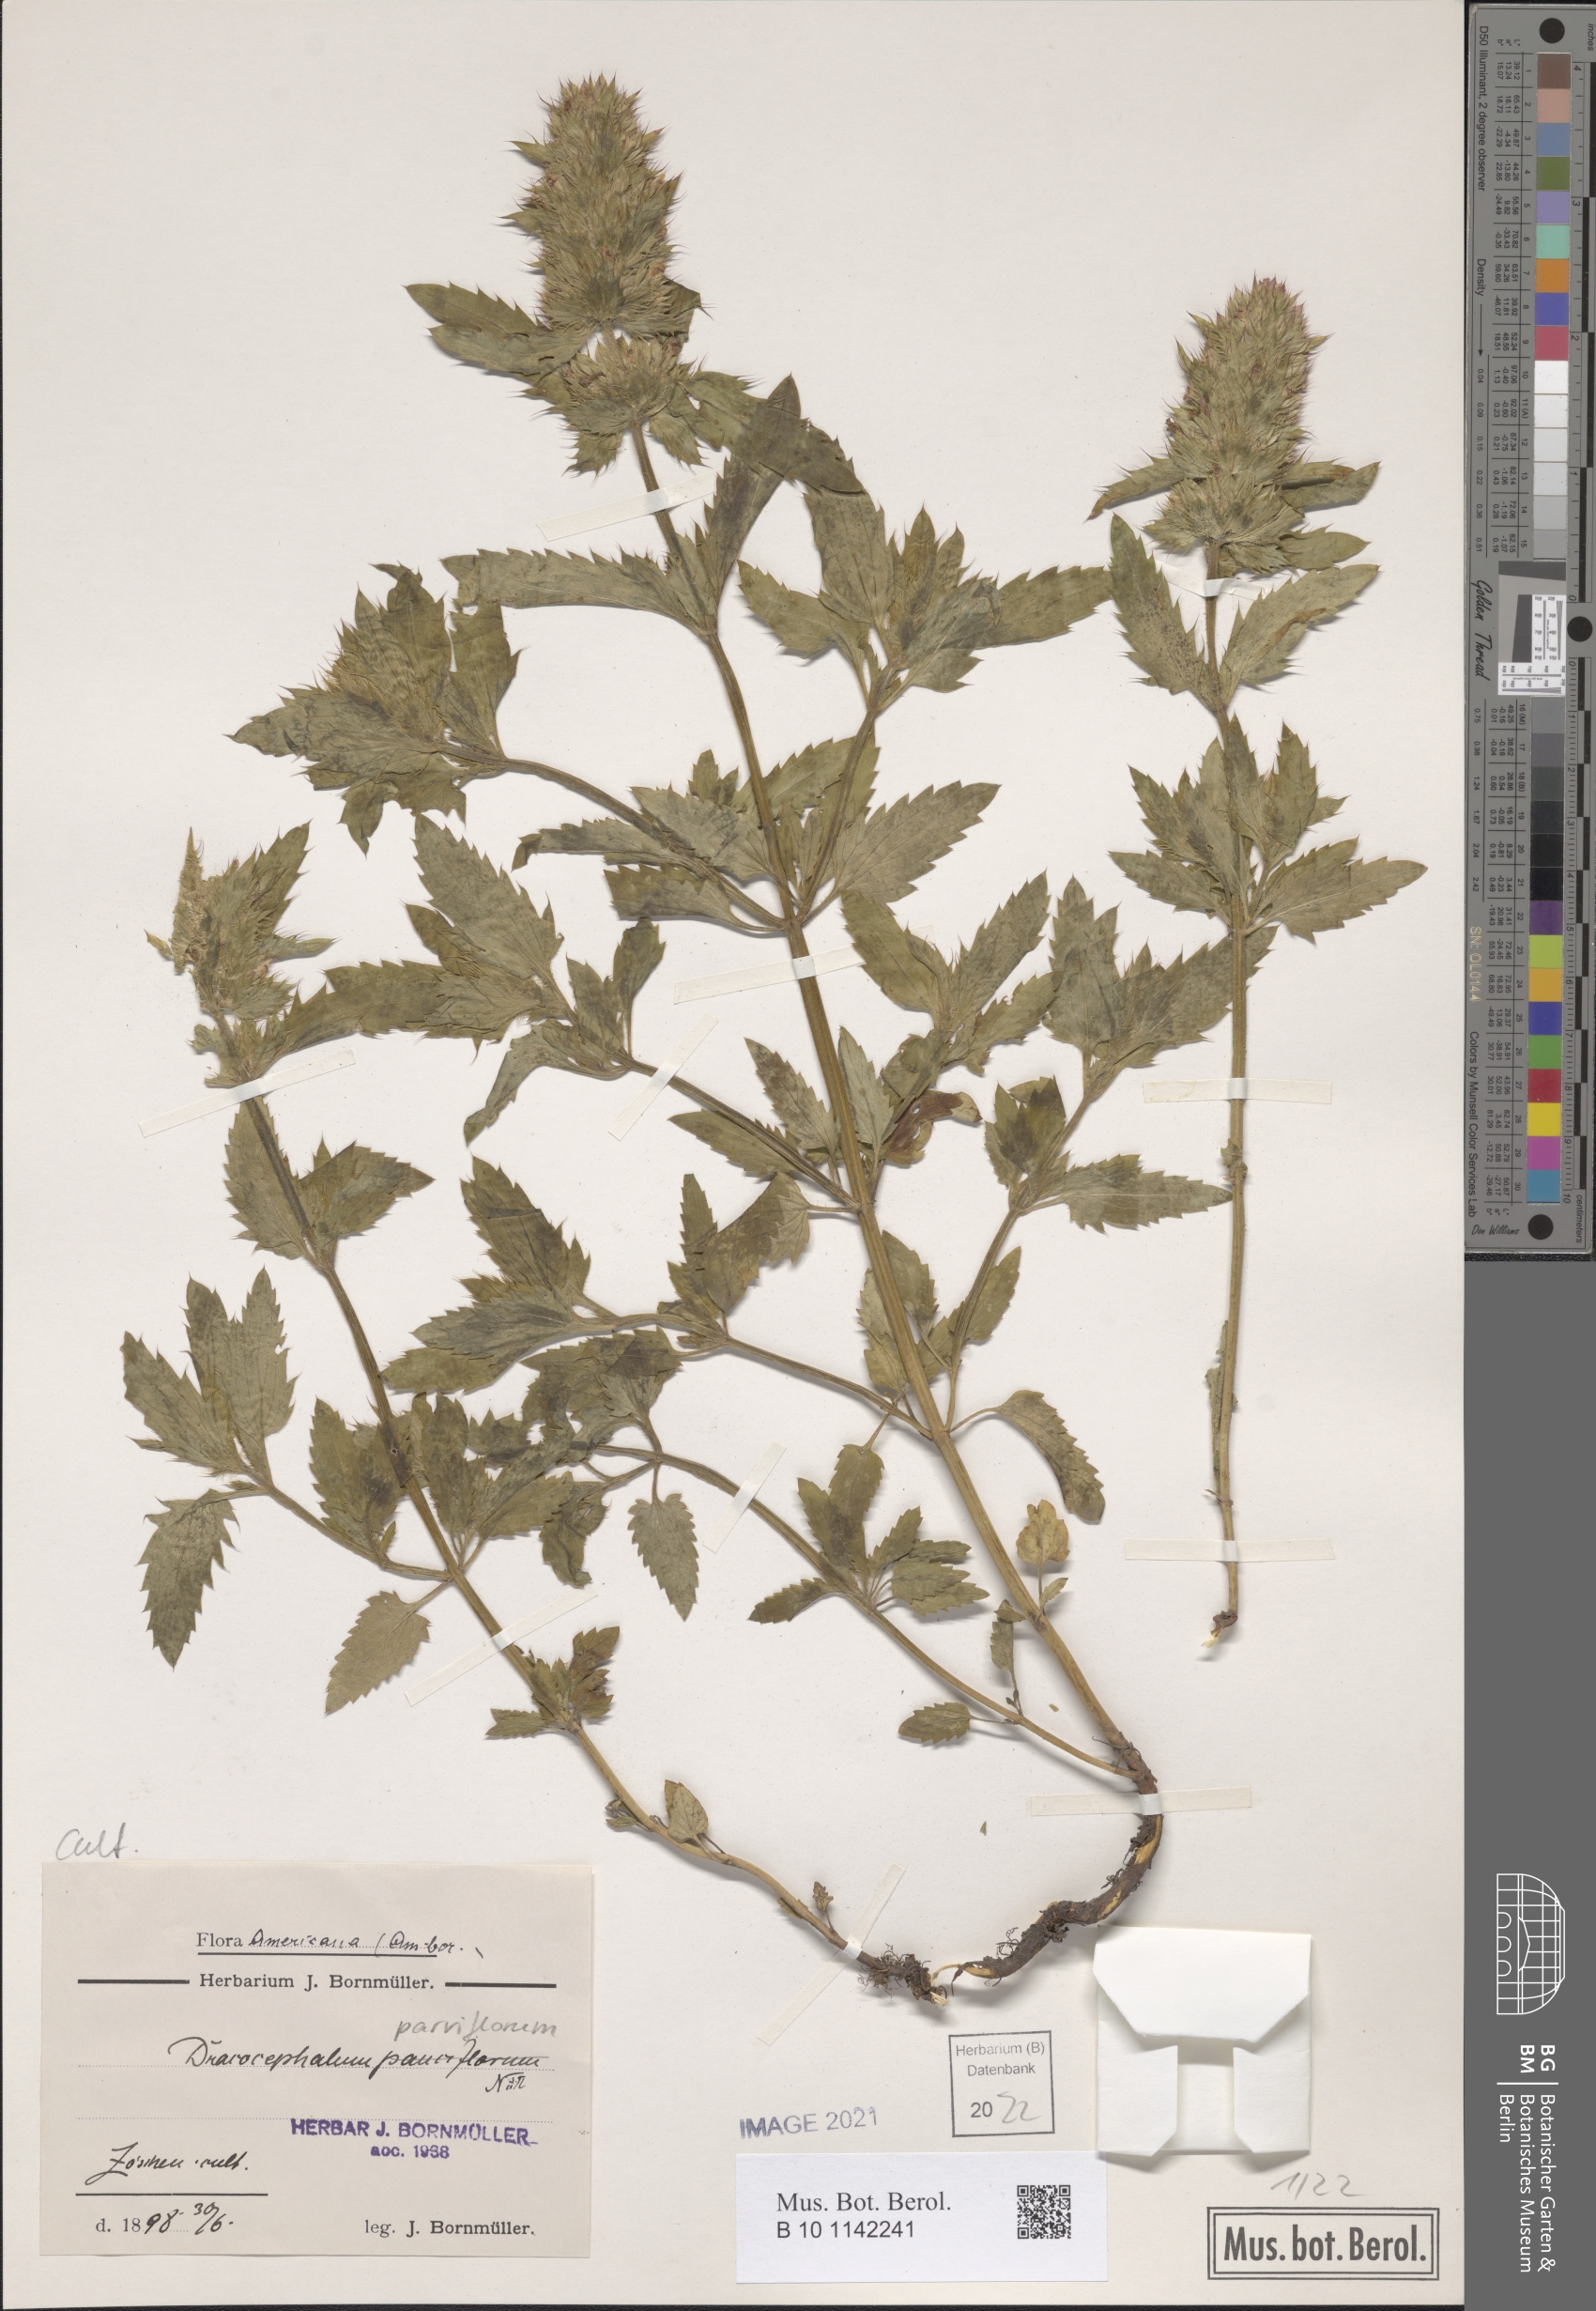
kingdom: Plantae
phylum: Tracheophyta
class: Magnoliopsida
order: Lamiales
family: Lamiaceae
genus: Dracocephalum
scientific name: Dracocephalum parviflorum
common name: American dragonhead
